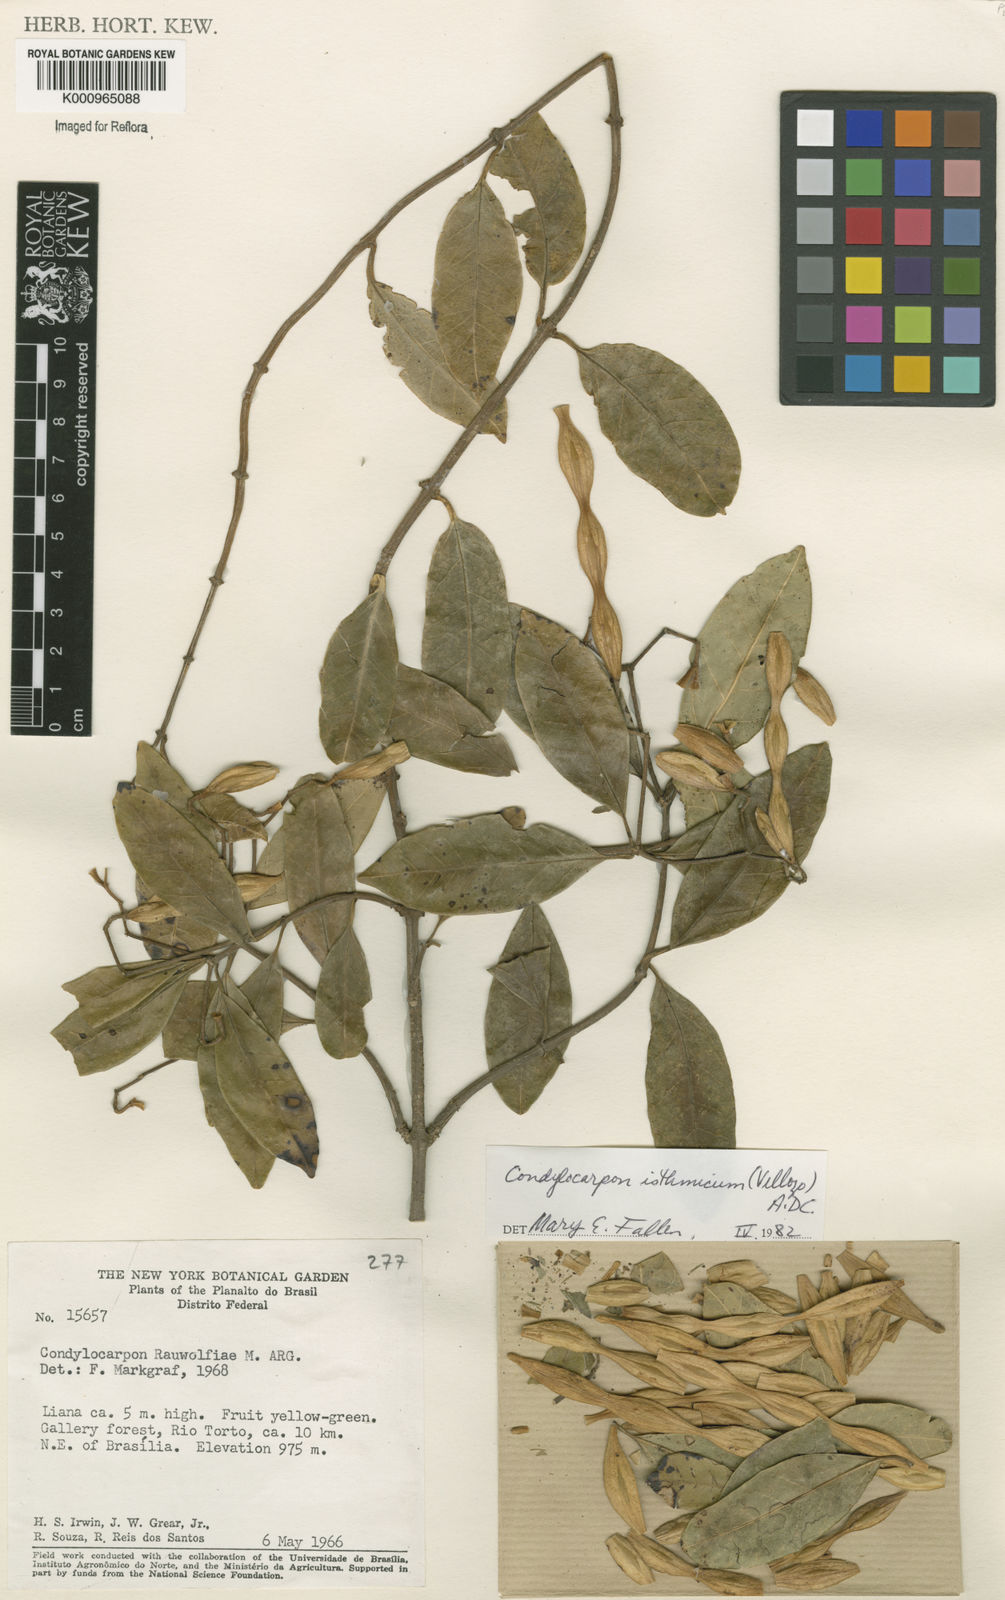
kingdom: Plantae
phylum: Tracheophyta
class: Magnoliopsida
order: Gentianales
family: Apocynaceae
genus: Condylocarpon
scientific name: Condylocarpon isthmicum
